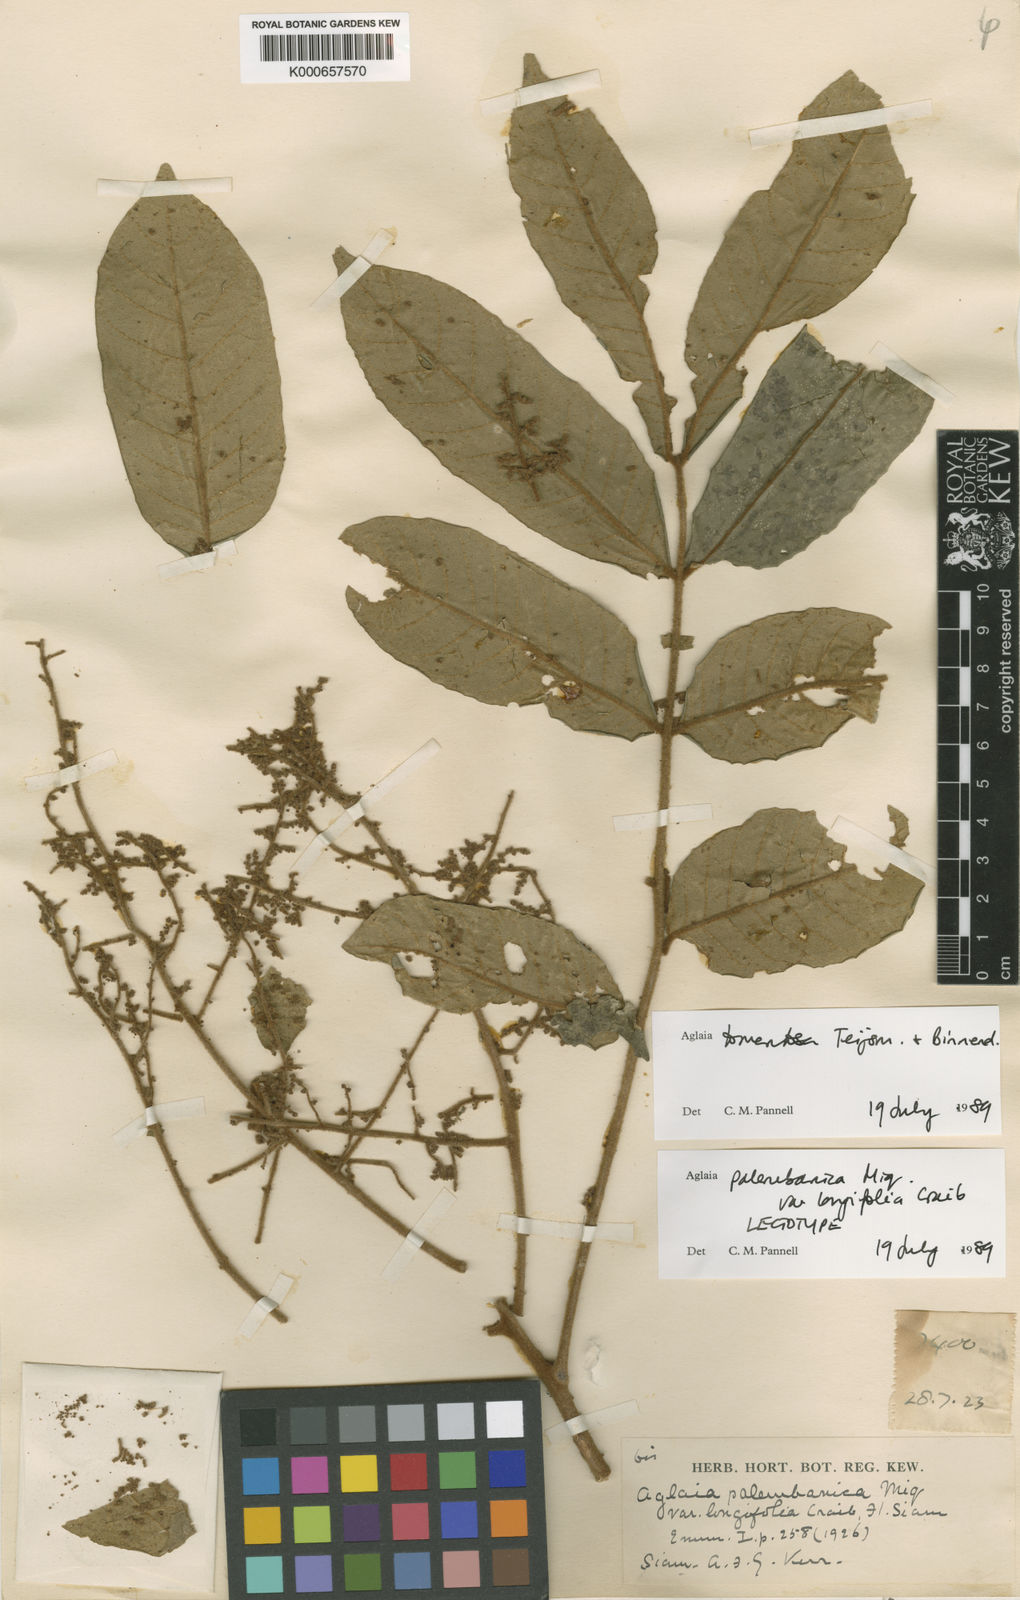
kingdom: Plantae
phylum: Tracheophyta
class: Magnoliopsida
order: Sapindales
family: Meliaceae
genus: Aglaia
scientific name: Aglaia tomentosa
